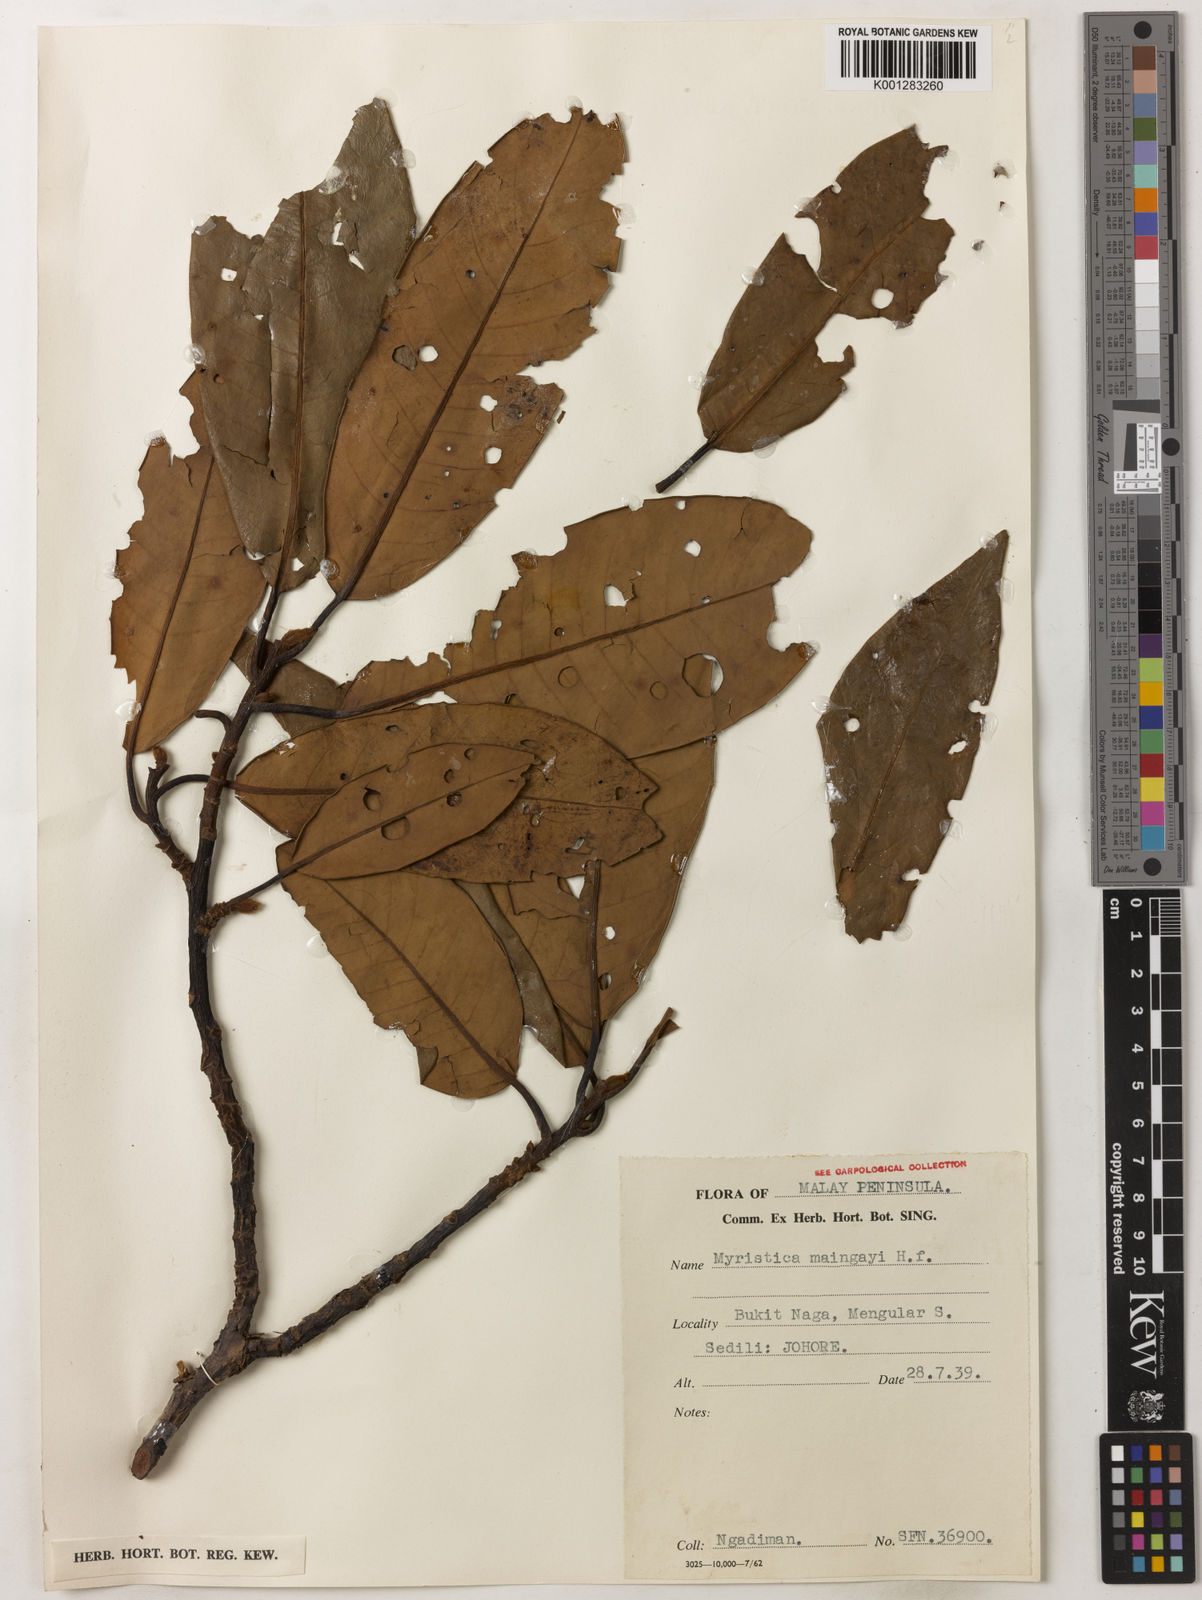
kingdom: Plantae
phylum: Tracheophyta
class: Magnoliopsida
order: Magnoliales
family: Myristicaceae
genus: Myristica
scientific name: Myristica maingayi
